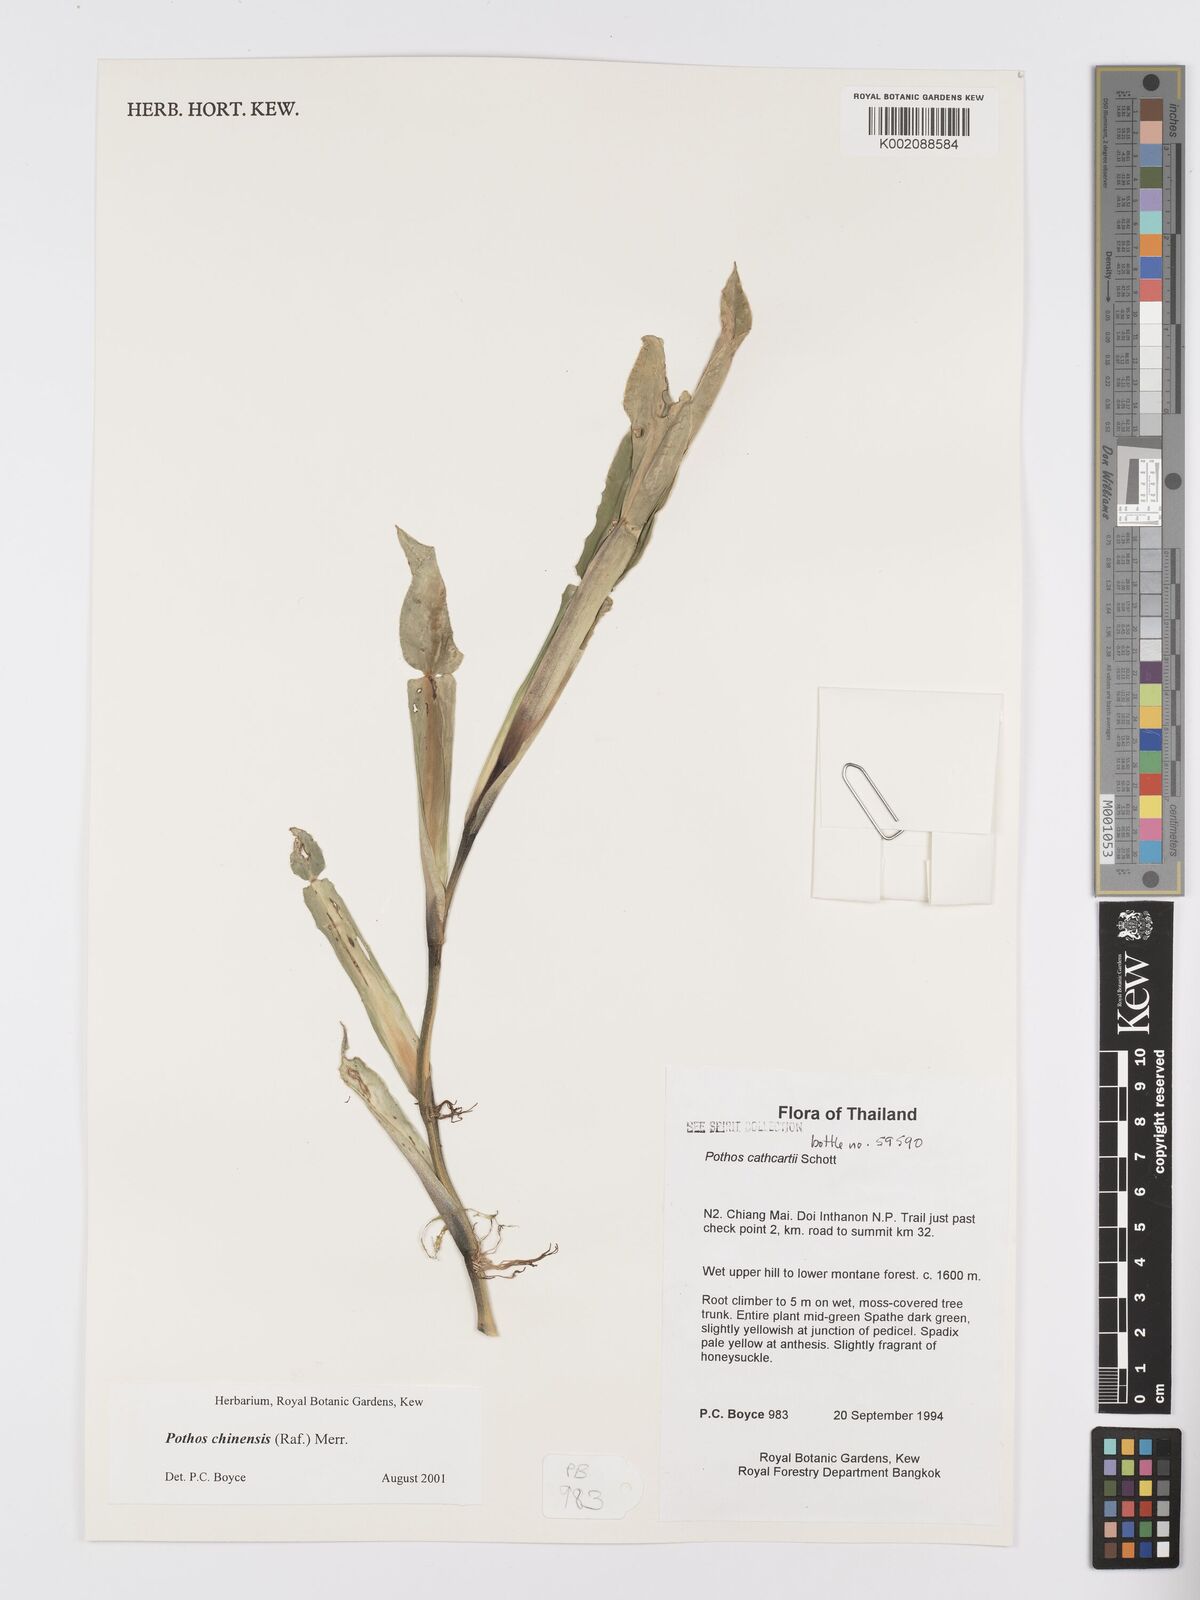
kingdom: Plantae
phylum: Tracheophyta
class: Liliopsida
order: Alismatales
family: Araceae
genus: Pothos
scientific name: Pothos chinensis
